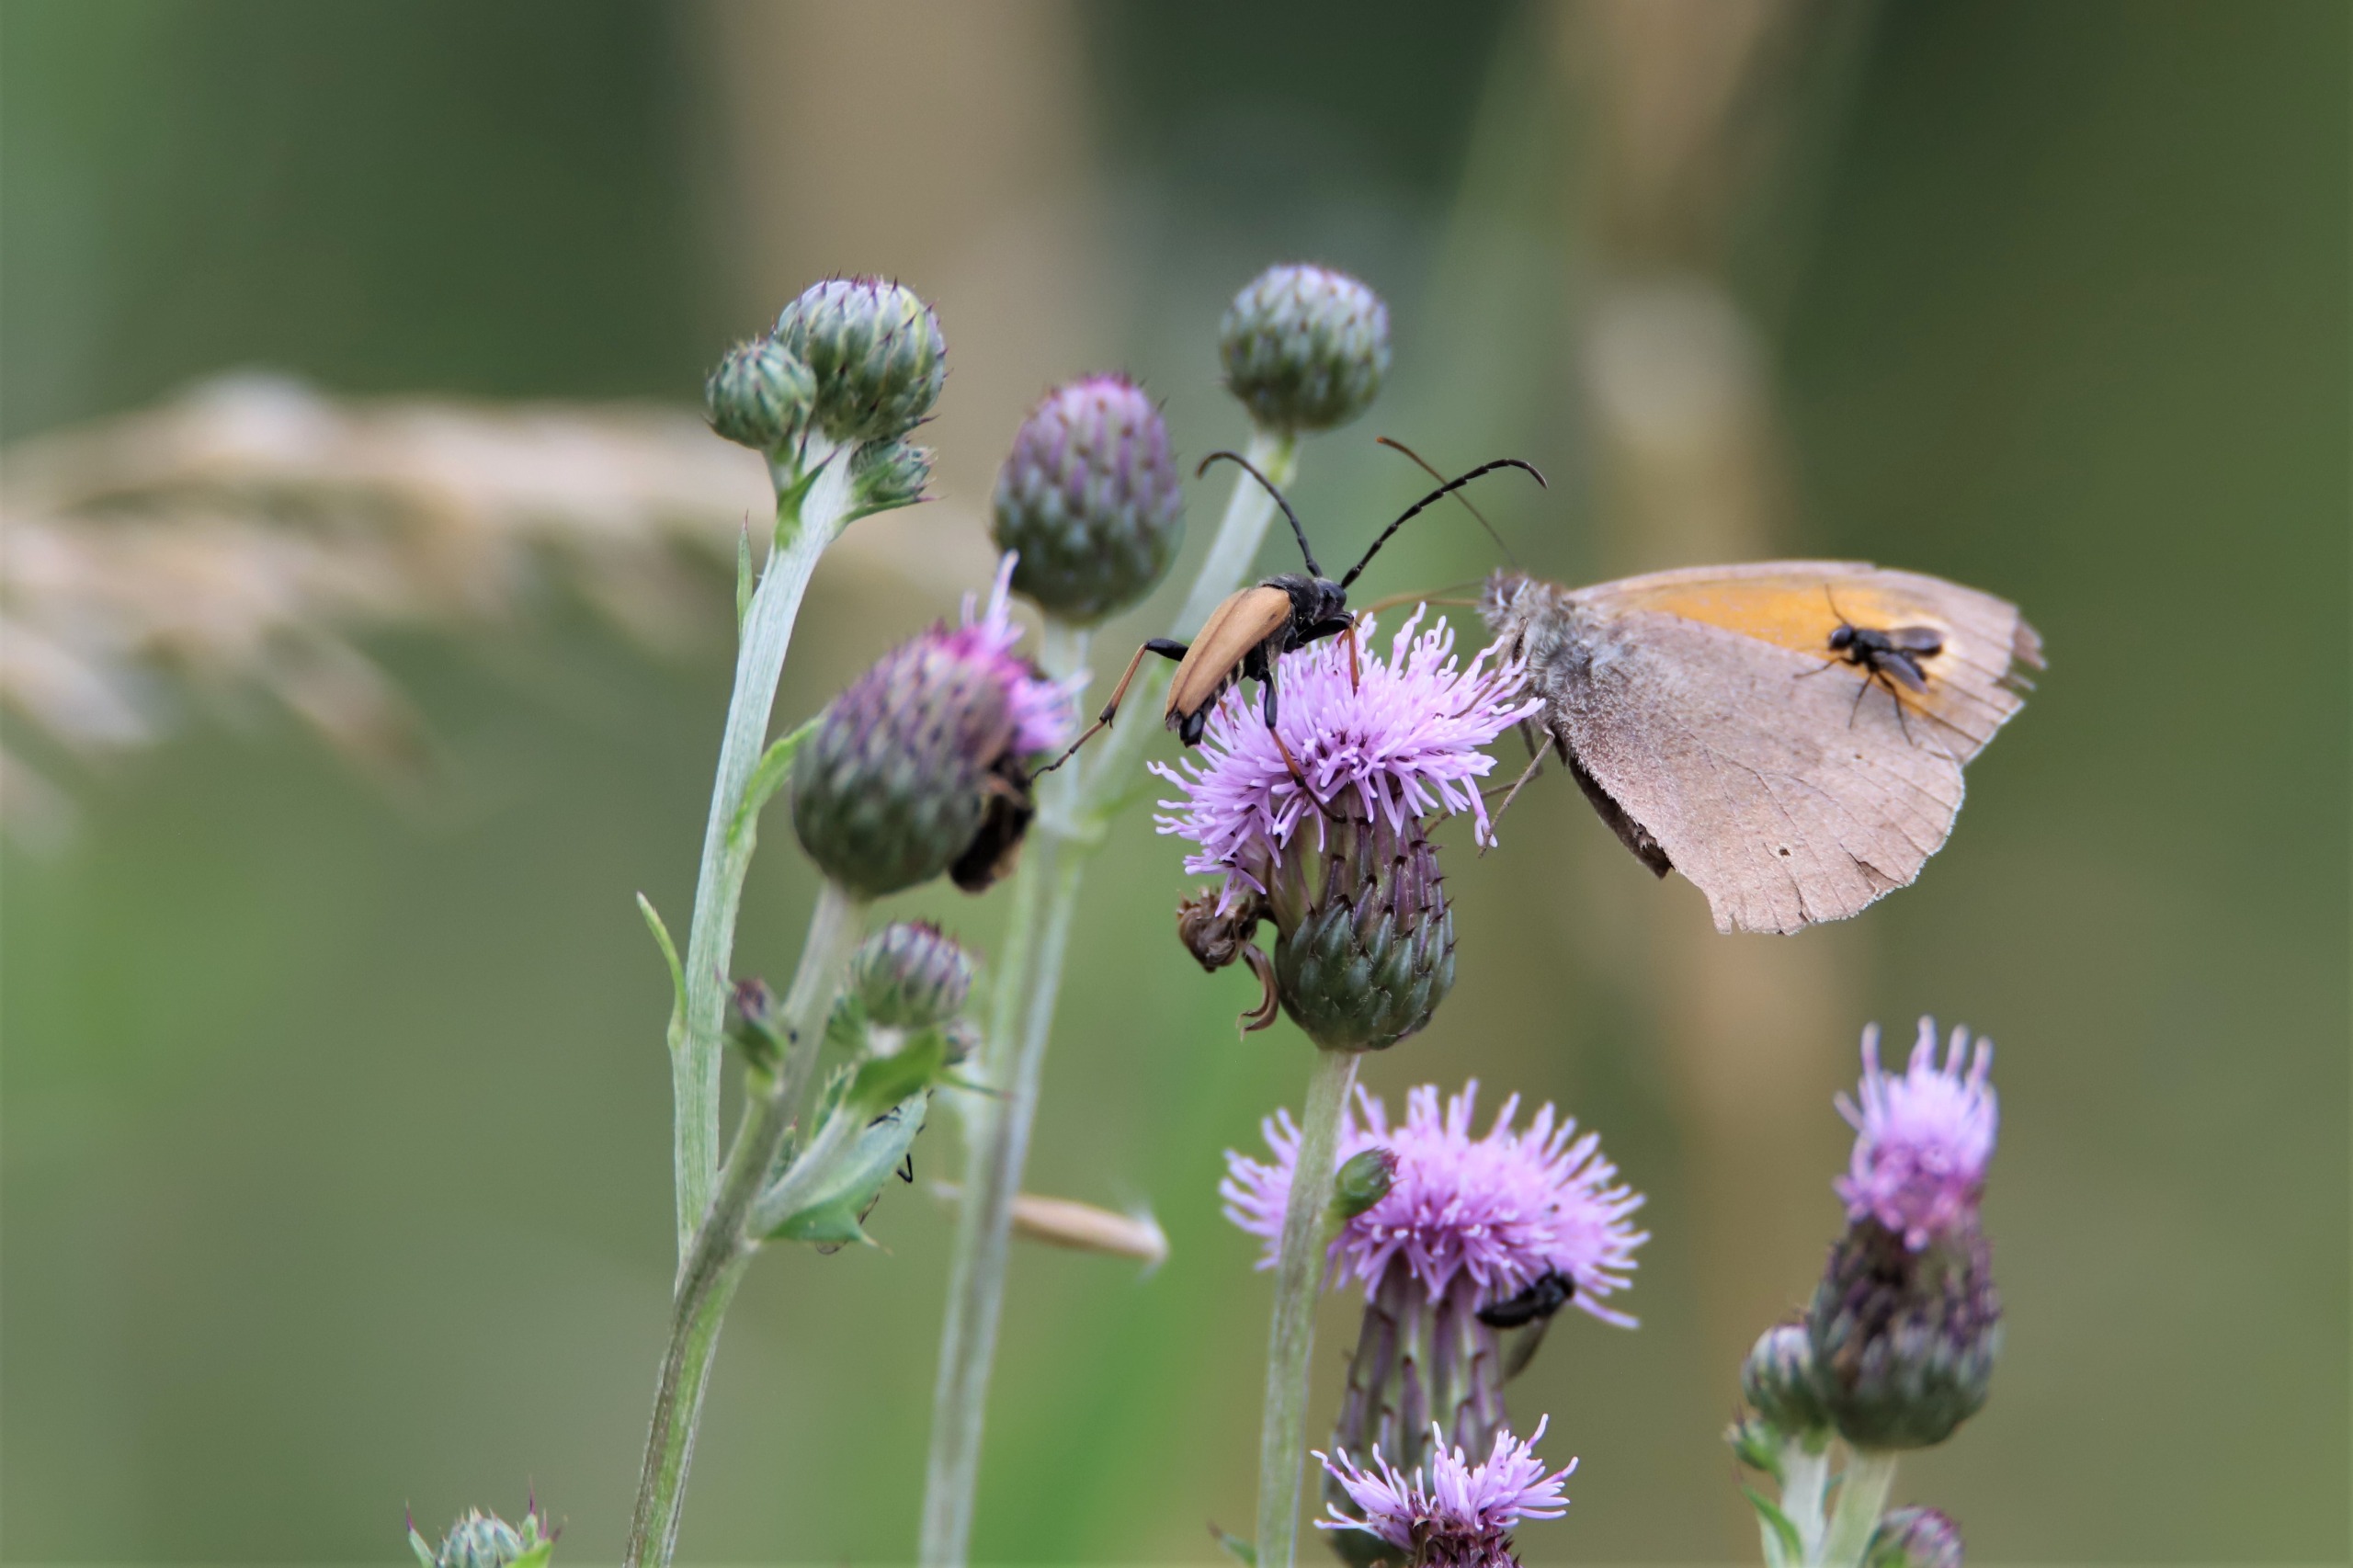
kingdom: Animalia
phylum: Arthropoda
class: Insecta
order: Coleoptera
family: Cerambycidae
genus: Stictoleptura
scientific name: Stictoleptura rubra
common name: Rød blomsterbuk
